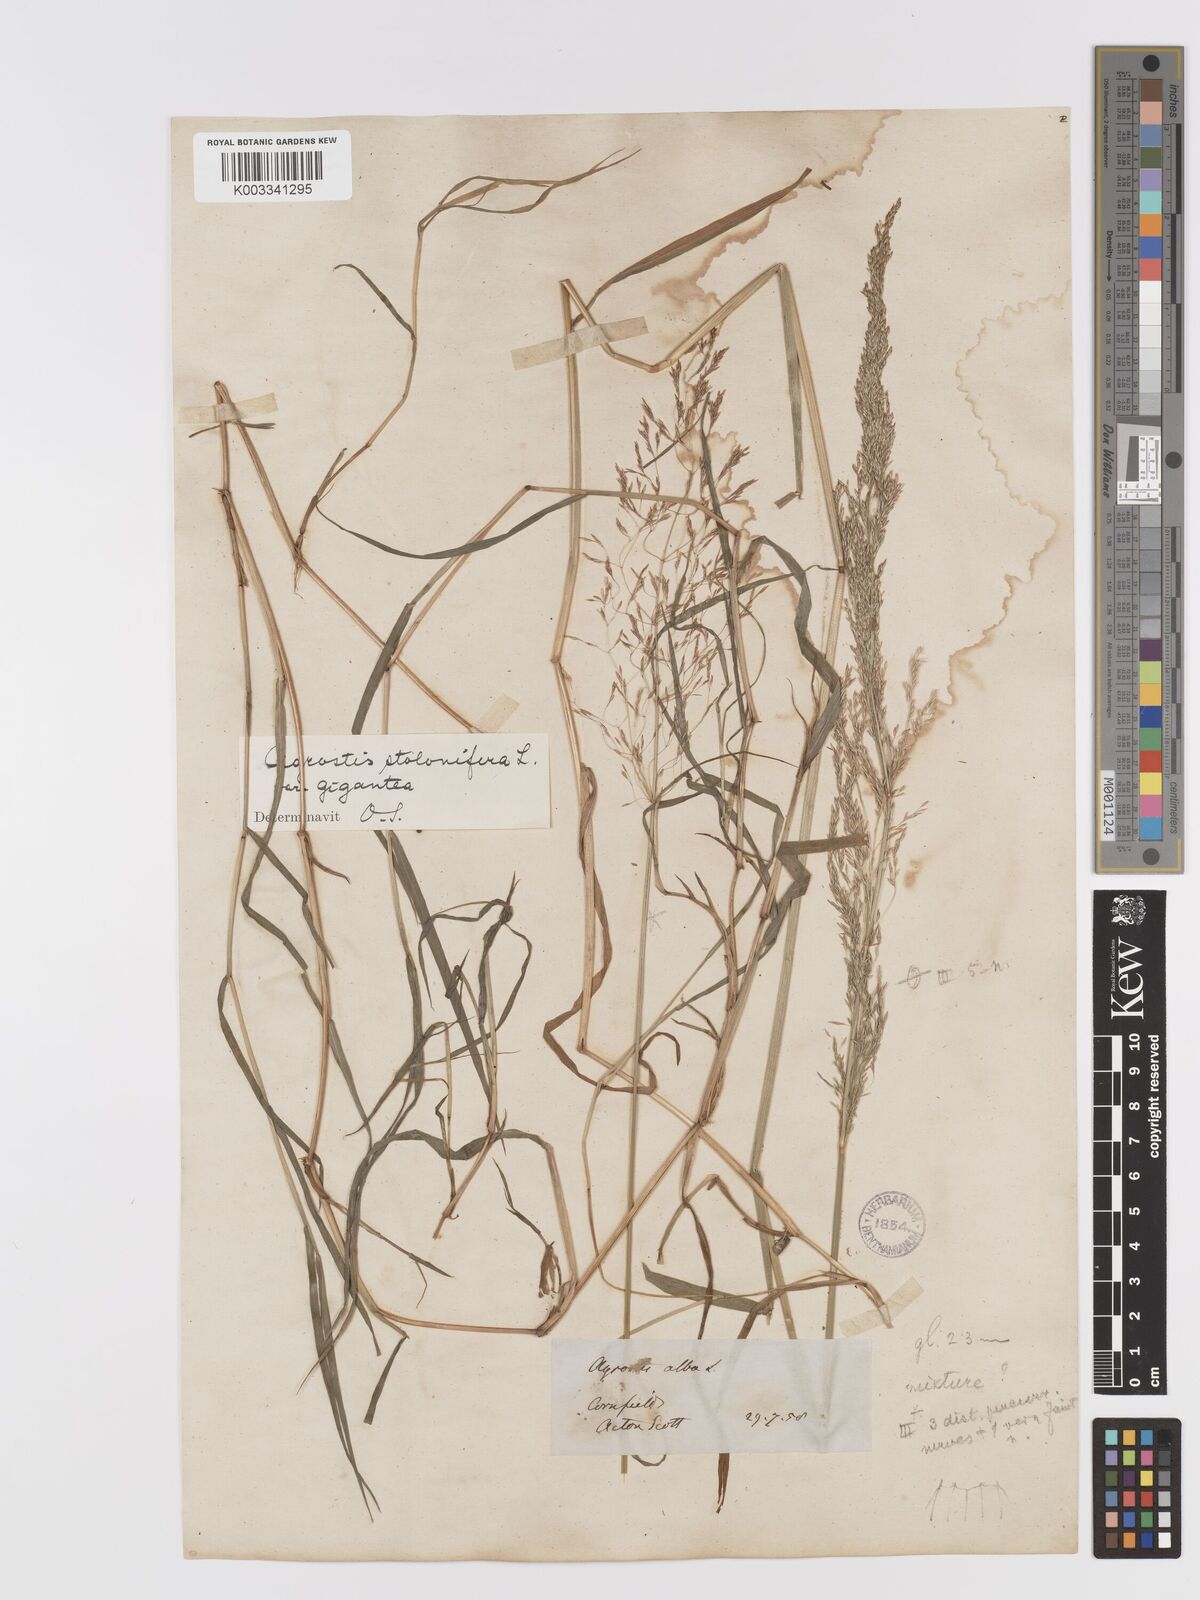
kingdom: Plantae
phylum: Tracheophyta
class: Liliopsida
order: Poales
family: Poaceae
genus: Agrostis
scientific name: Agrostis gigantea
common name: Black bent
